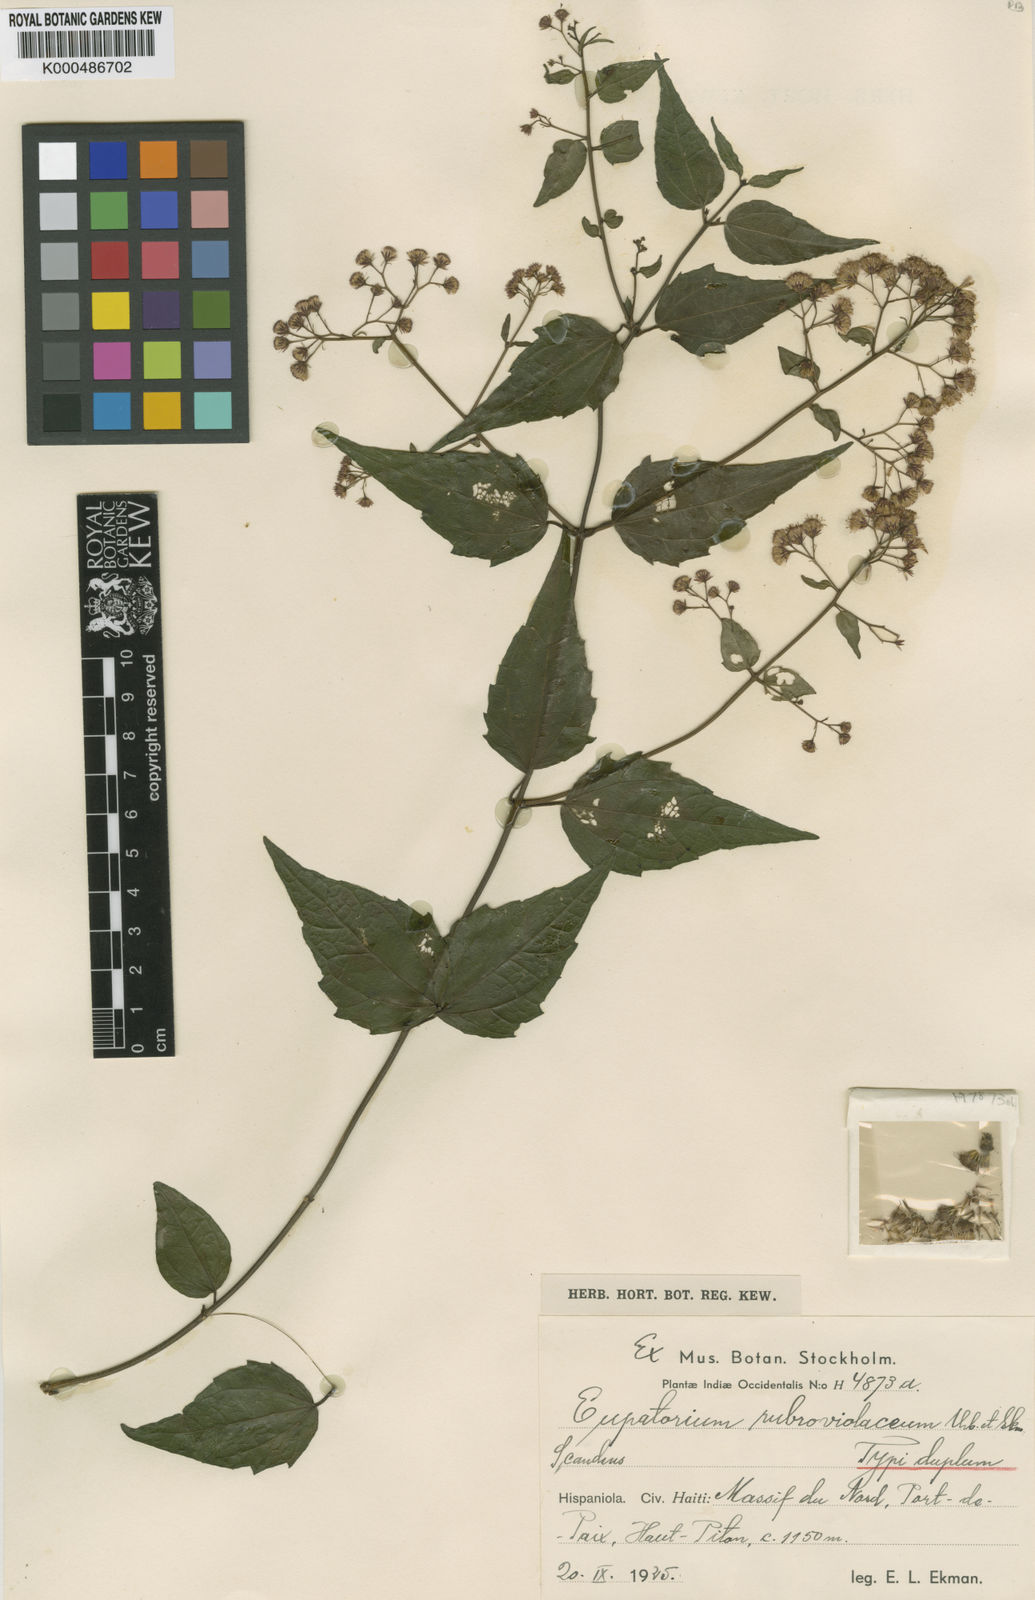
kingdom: Plantae
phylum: Tracheophyta
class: Magnoliopsida
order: Asterales
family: Asteraceae
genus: Koanophyllon
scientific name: Koanophyllon rubroviolaceum
